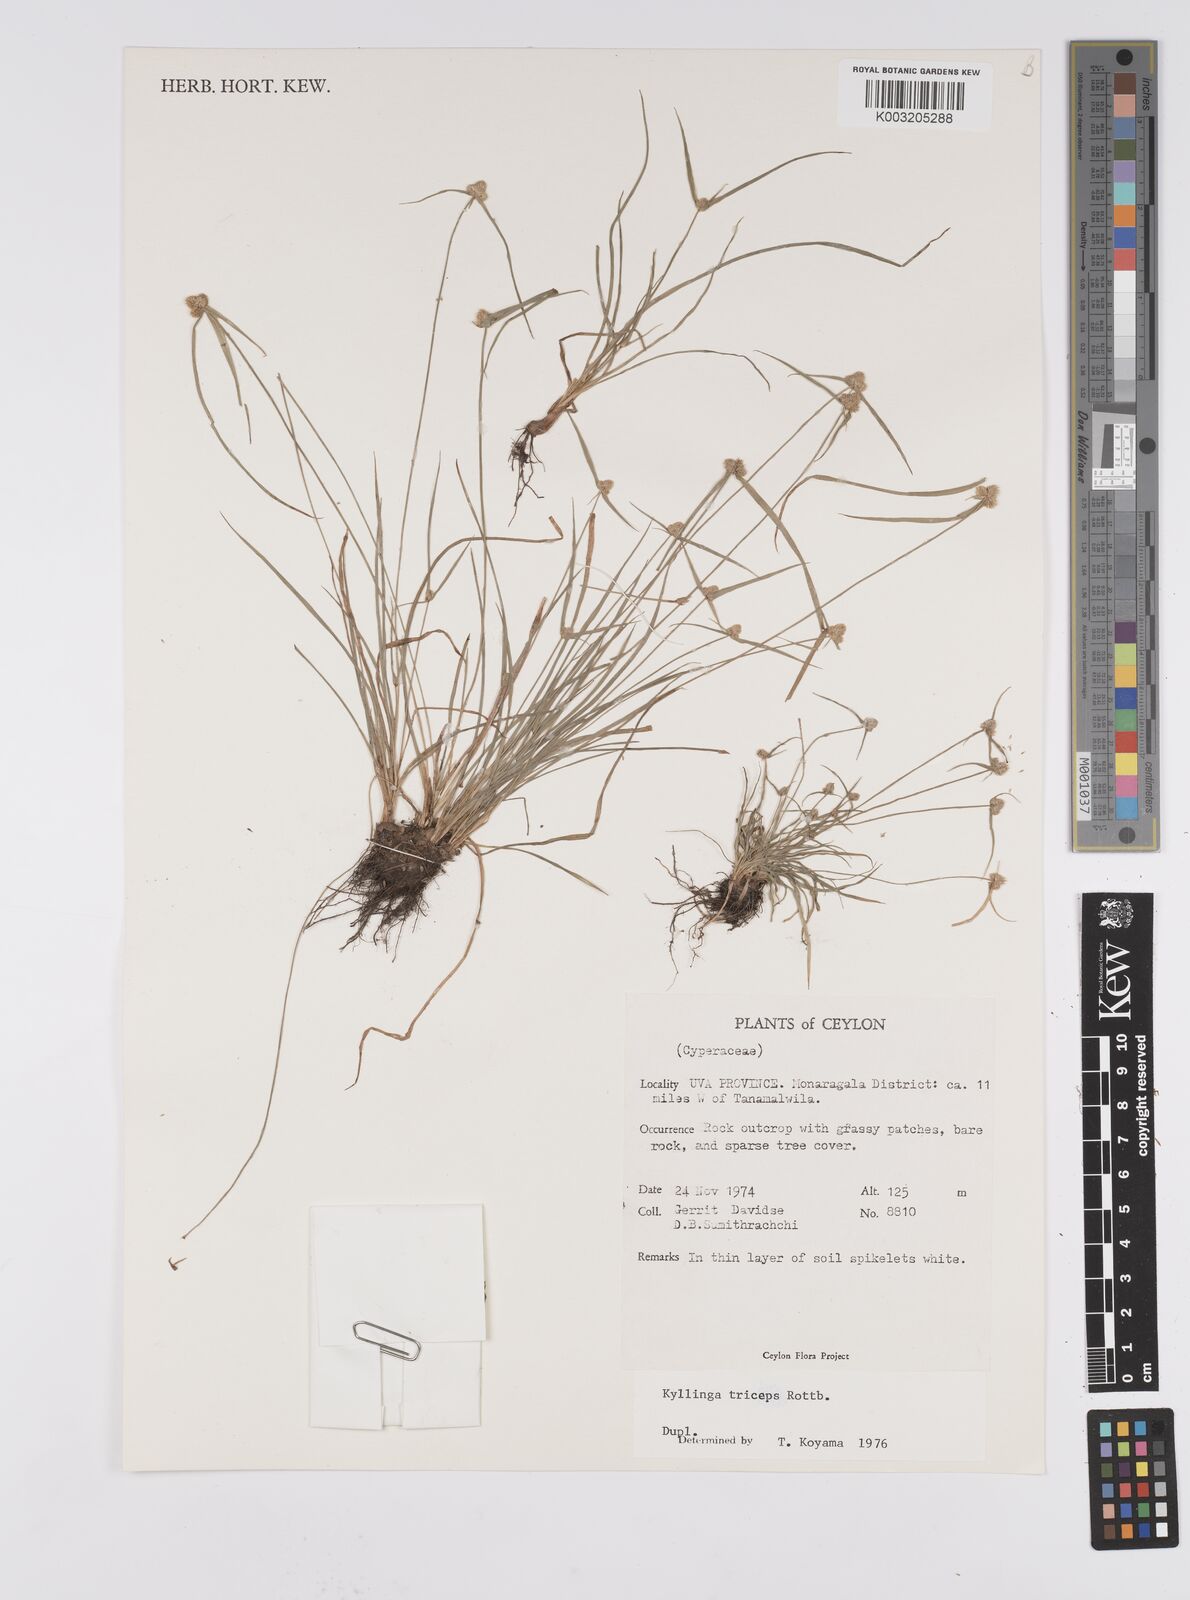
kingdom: Plantae
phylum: Tracheophyta
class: Liliopsida
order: Poales
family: Cyperaceae
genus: Cyperus
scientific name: Cyperus
